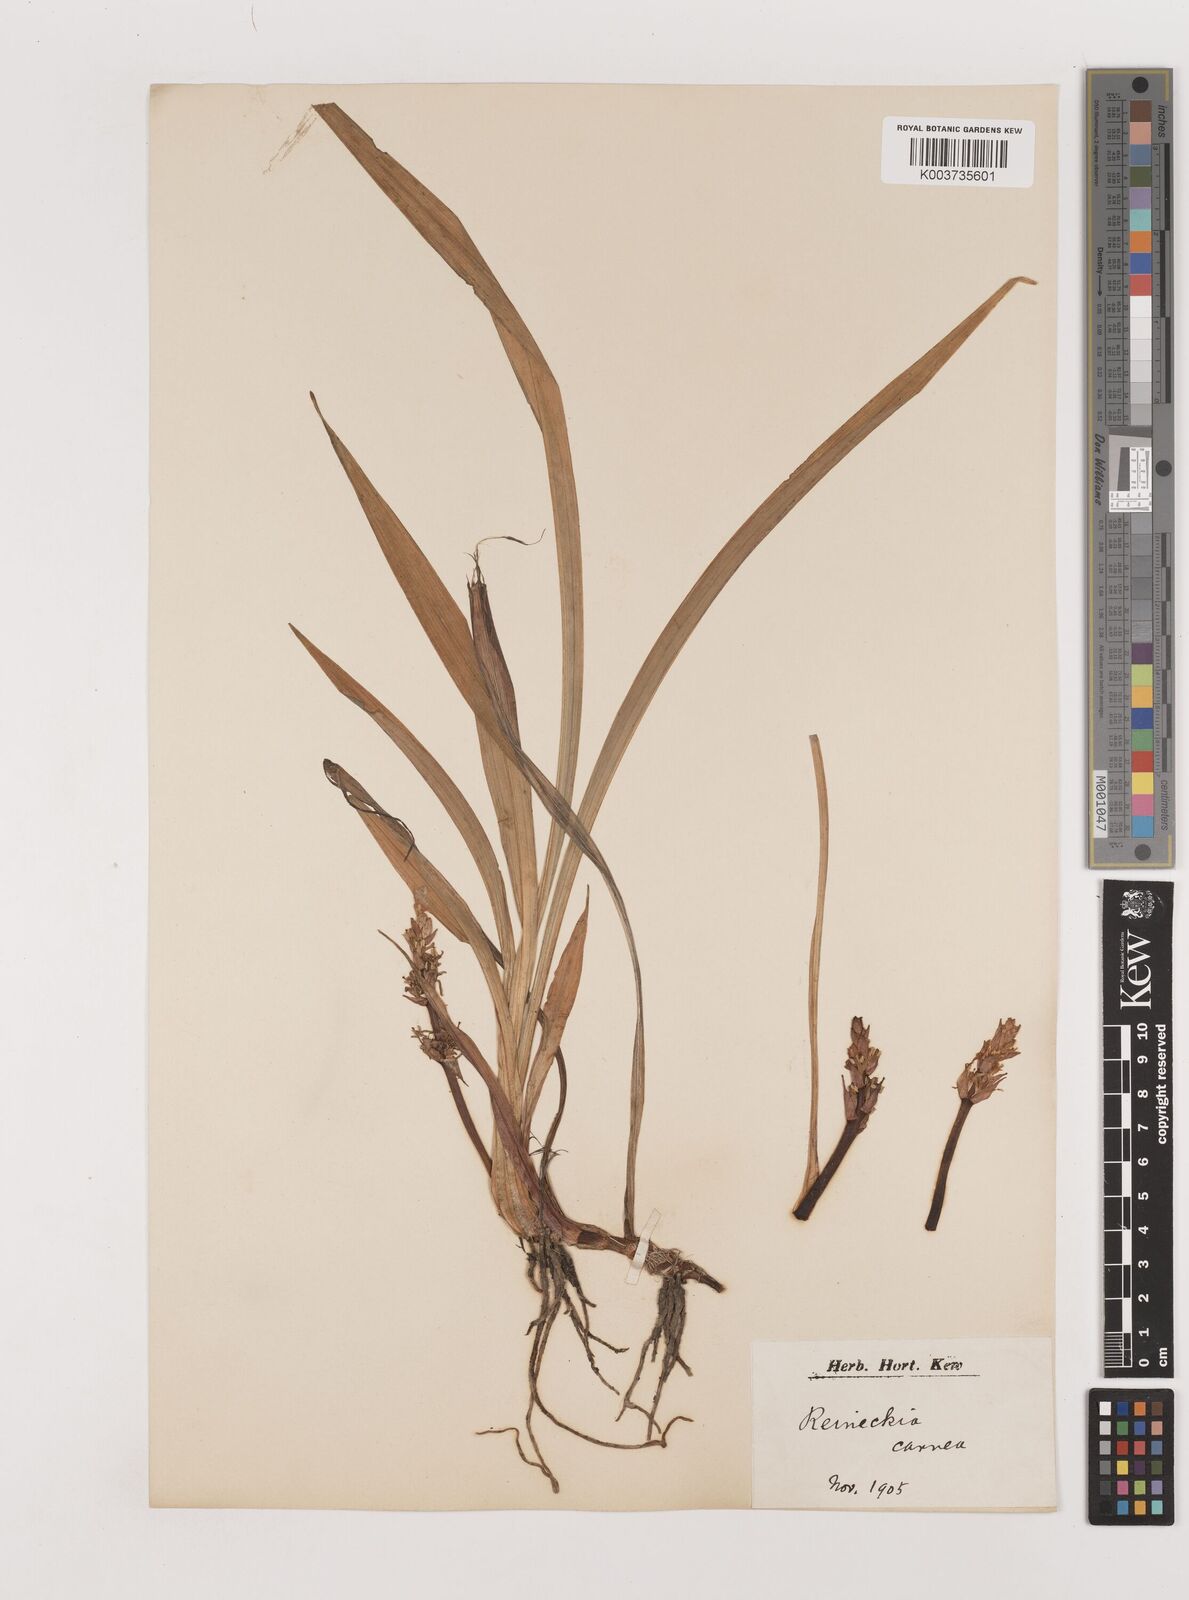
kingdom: Plantae
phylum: Tracheophyta
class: Liliopsida
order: Asparagales
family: Asparagaceae
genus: Reineckea
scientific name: Reineckea carnea
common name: Reineckea
